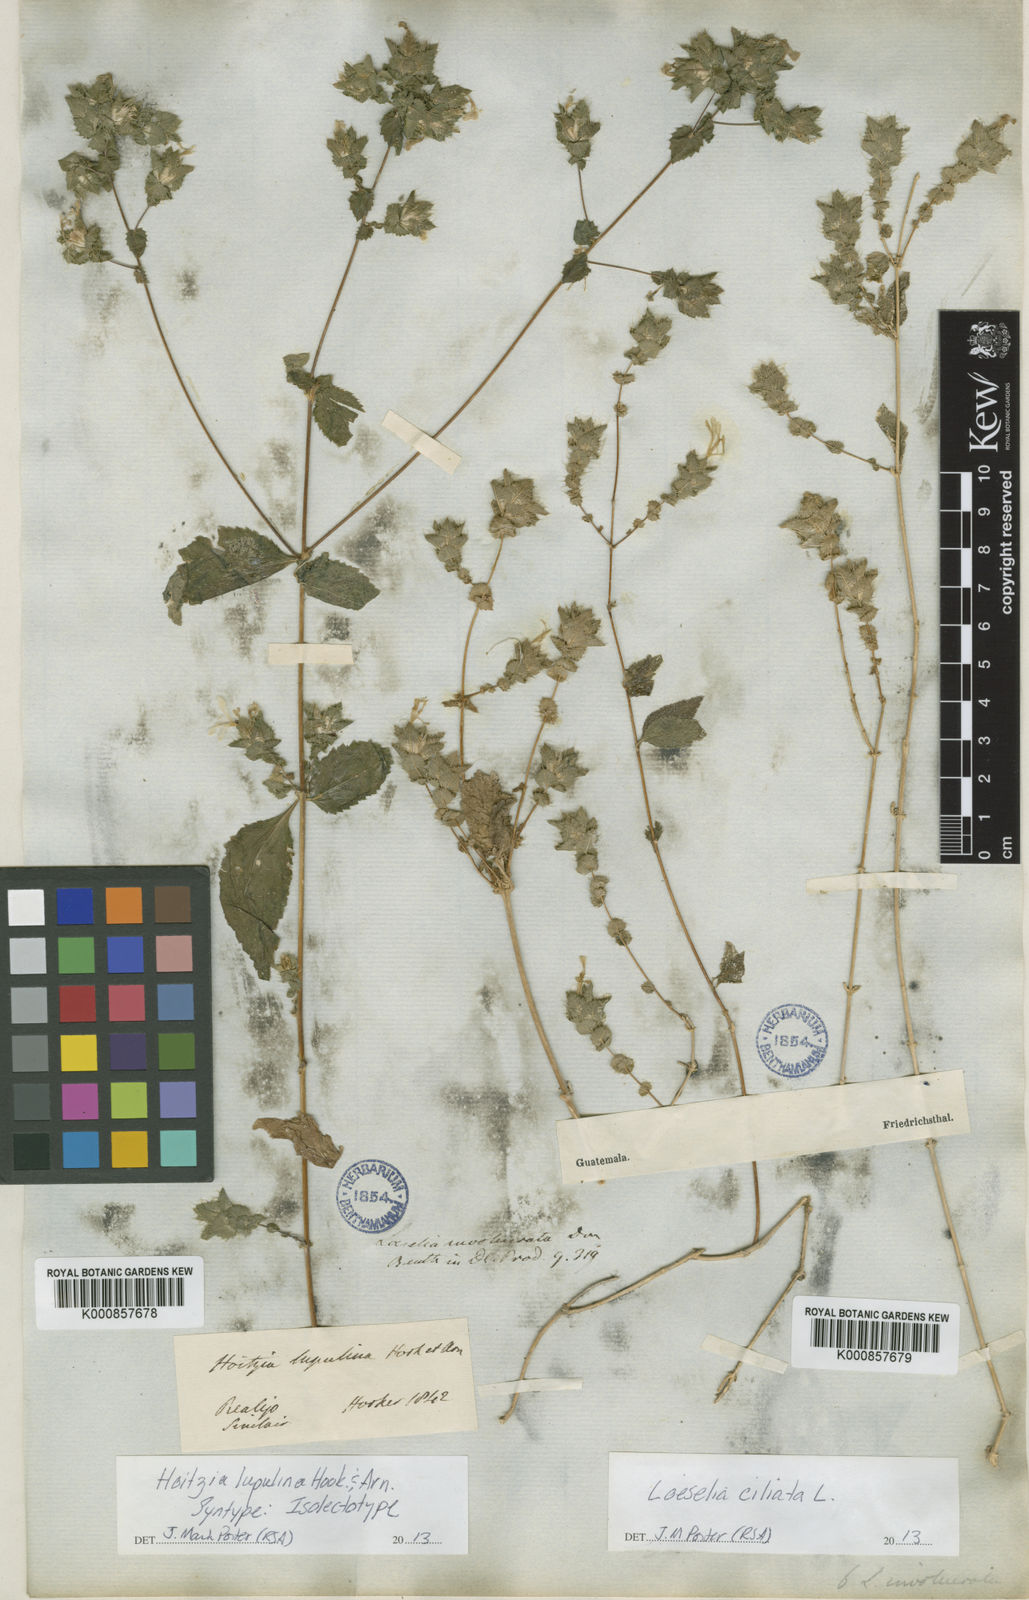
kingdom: Plantae
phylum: Tracheophyta
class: Magnoliopsida
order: Ericales
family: Polemoniaceae
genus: Loeselia
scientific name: Loeselia ciliata
